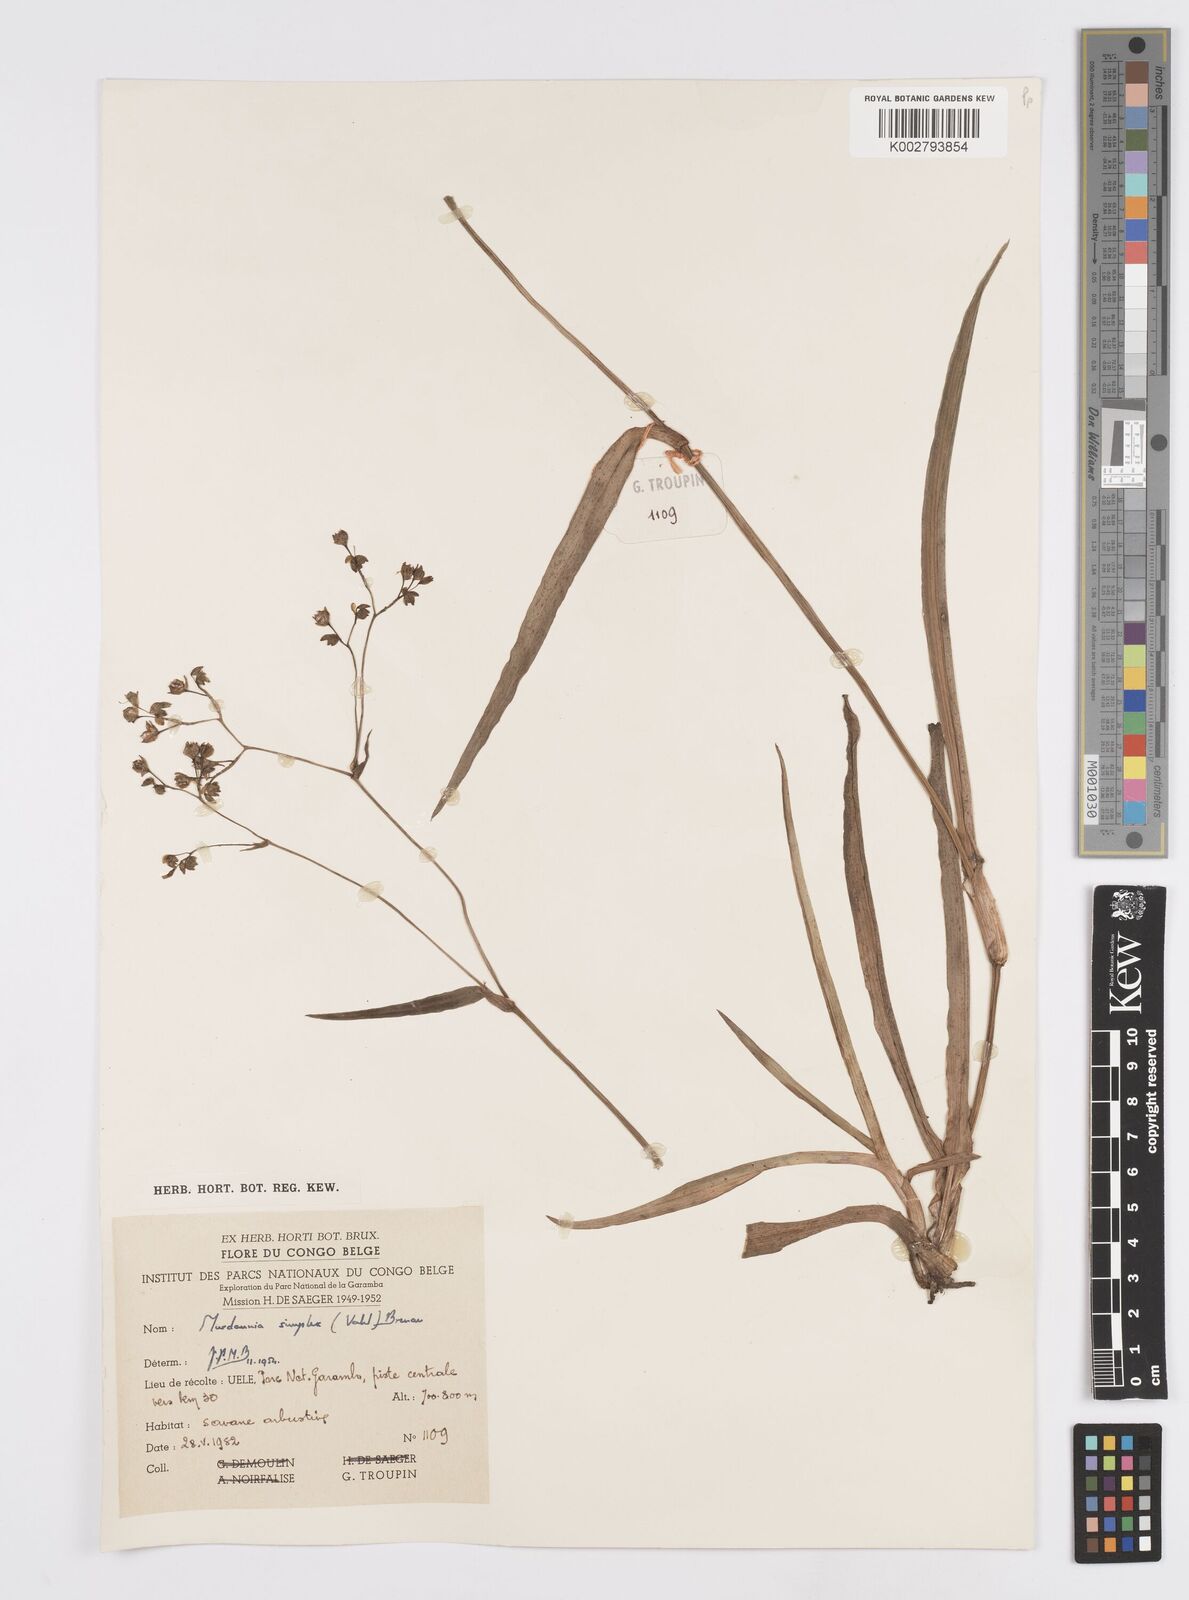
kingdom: Plantae
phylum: Tracheophyta
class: Liliopsida
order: Commelinales
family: Commelinaceae
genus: Murdannia
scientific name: Murdannia simplex
